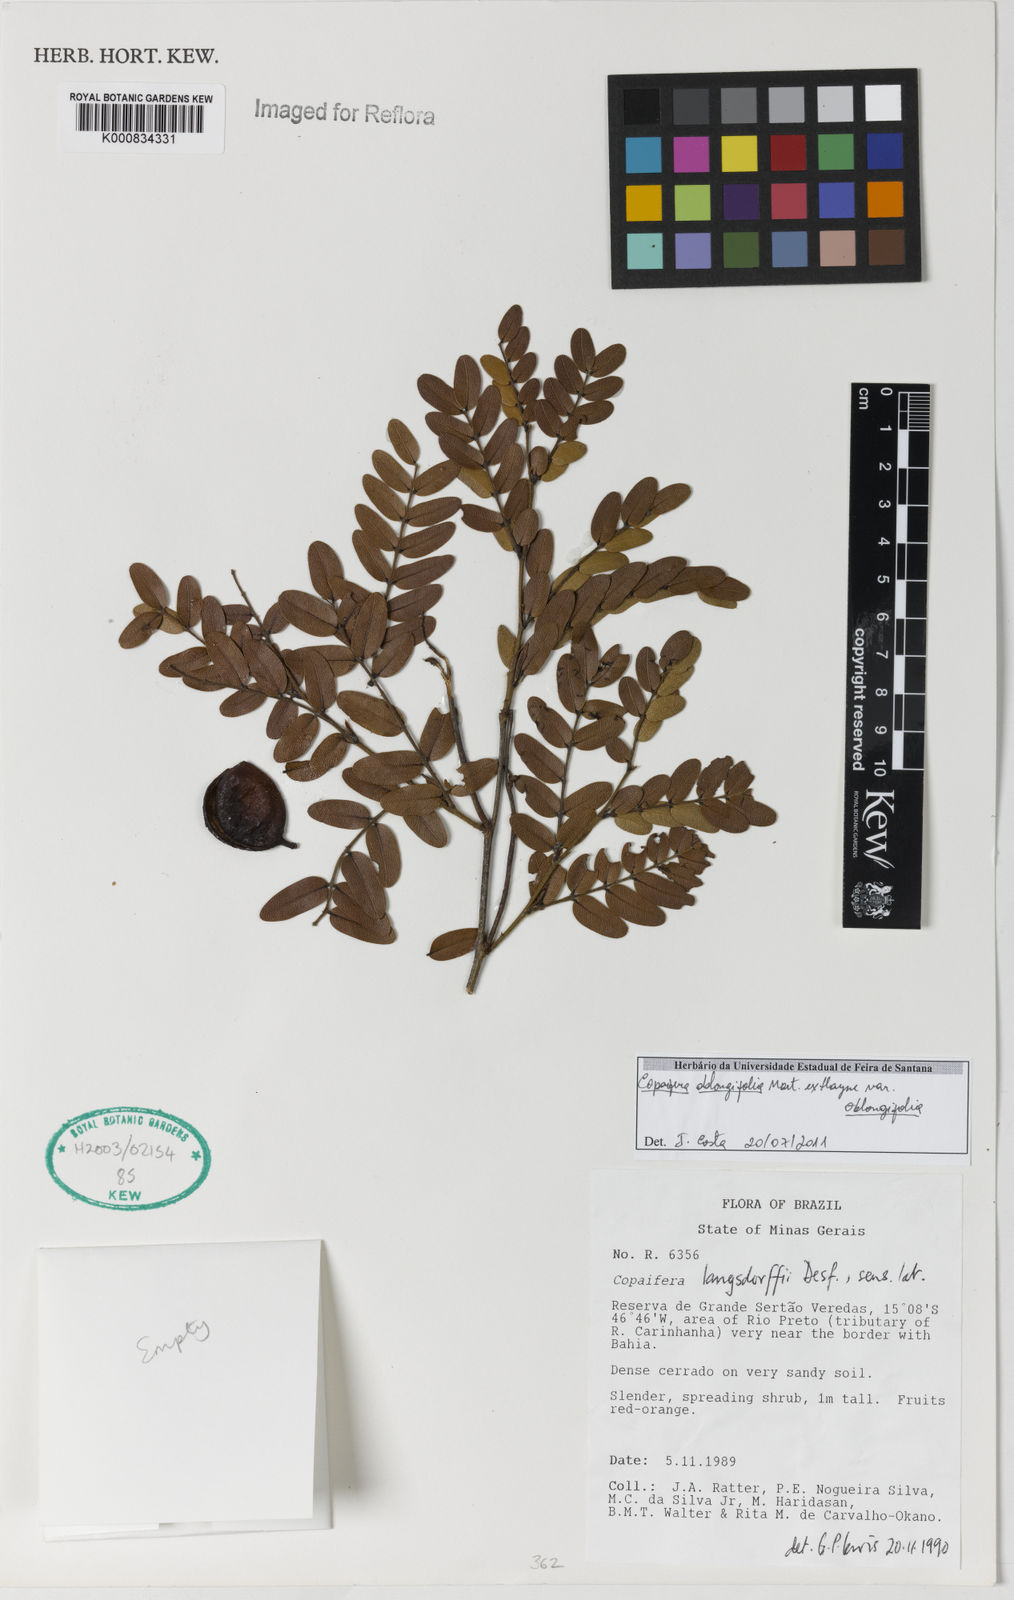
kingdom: Plantae
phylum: Tracheophyta
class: Magnoliopsida
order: Fabales
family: Fabaceae
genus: Copaifera
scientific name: Copaifera oblongifolia
